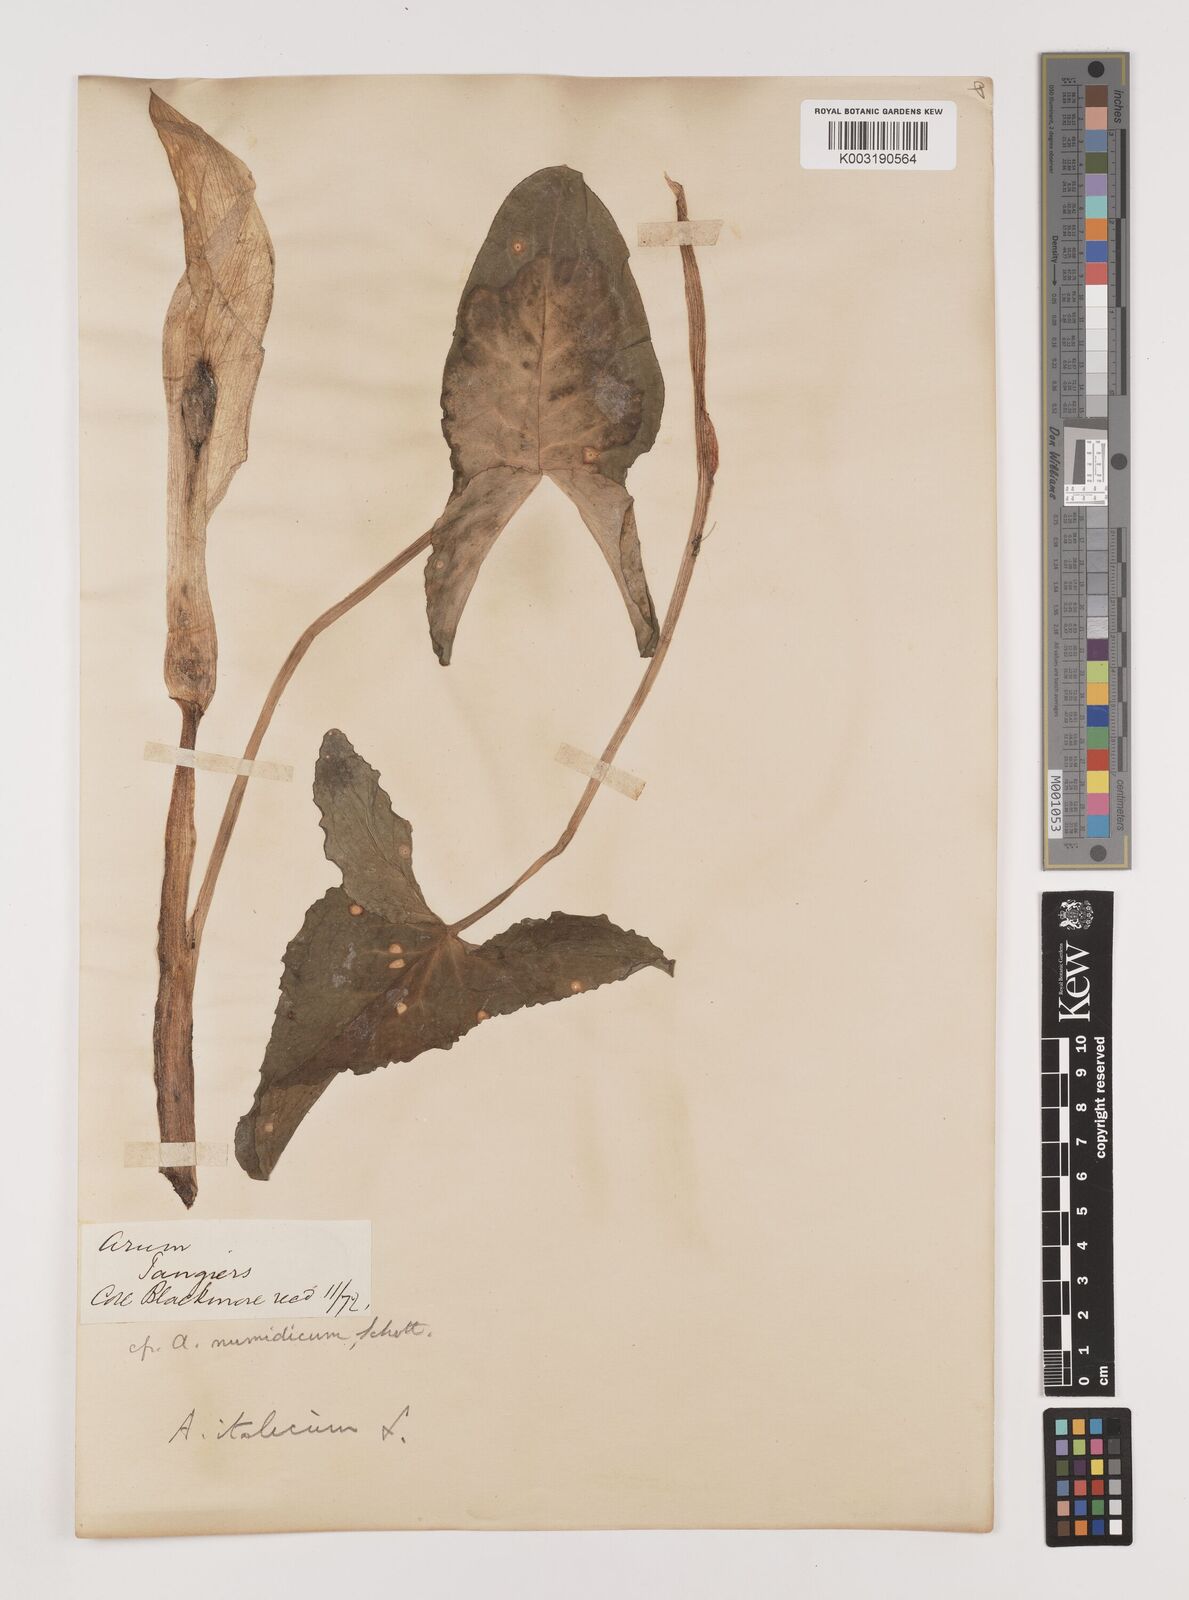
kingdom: Plantae
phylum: Tracheophyta
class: Liliopsida
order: Alismatales
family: Araceae
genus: Arum
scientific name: Arum italicum
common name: Italian lords-and-ladies
